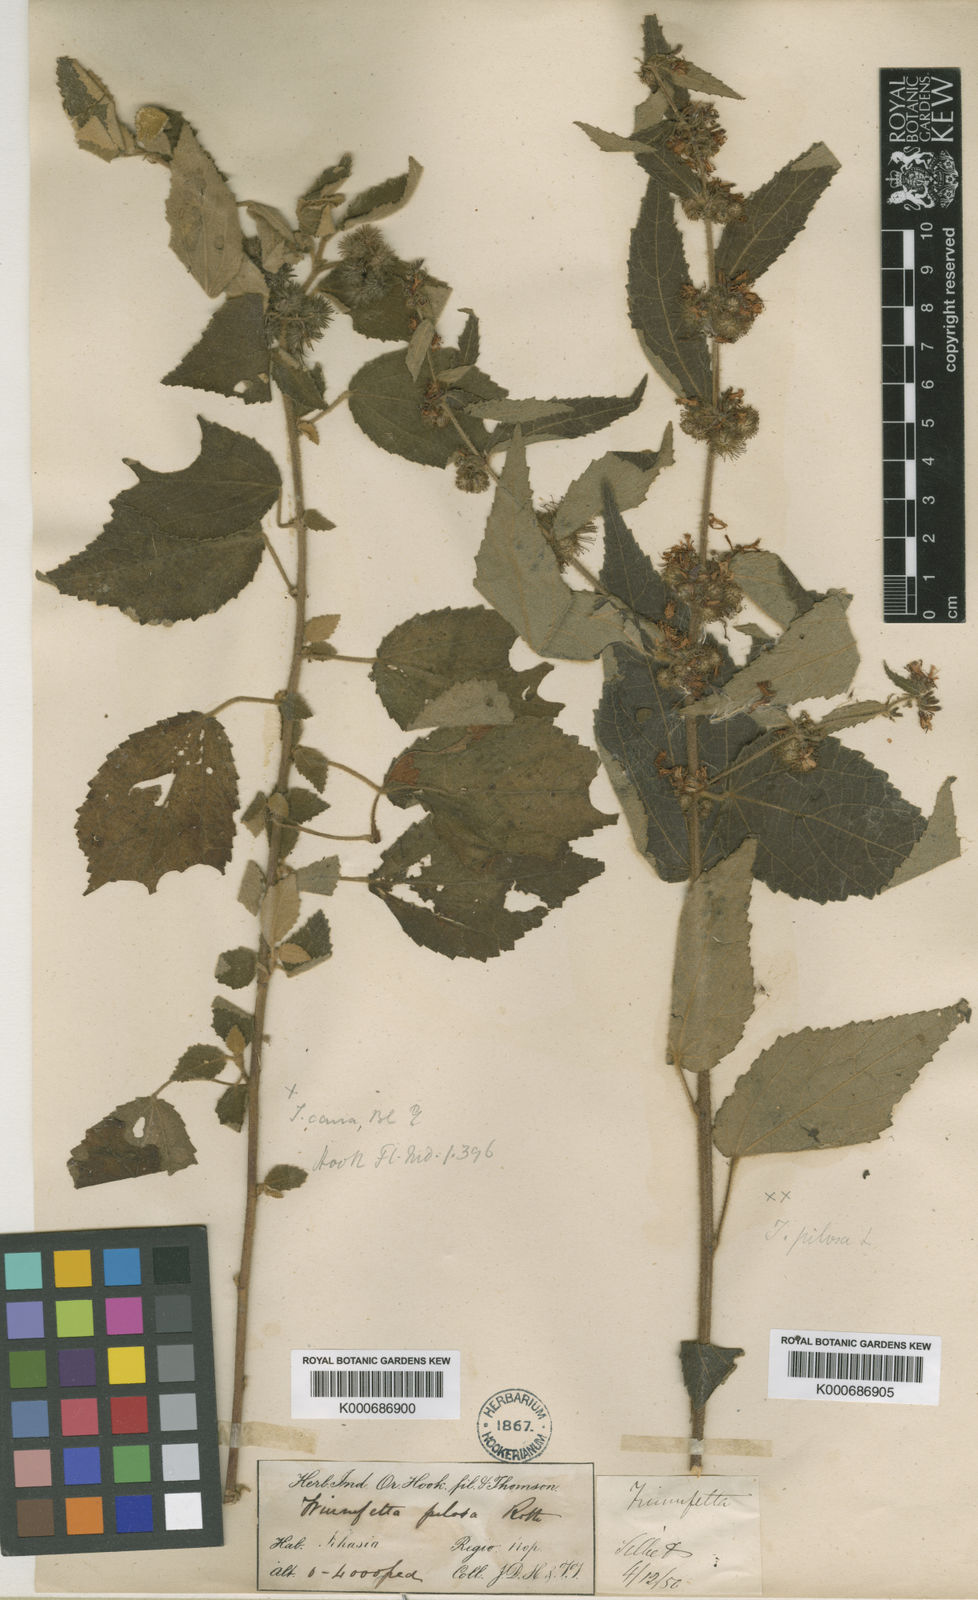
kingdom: Plantae
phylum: Tracheophyta
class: Magnoliopsida
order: Malvales
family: Malvaceae
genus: Triumfetta
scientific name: Triumfetta obliqua
